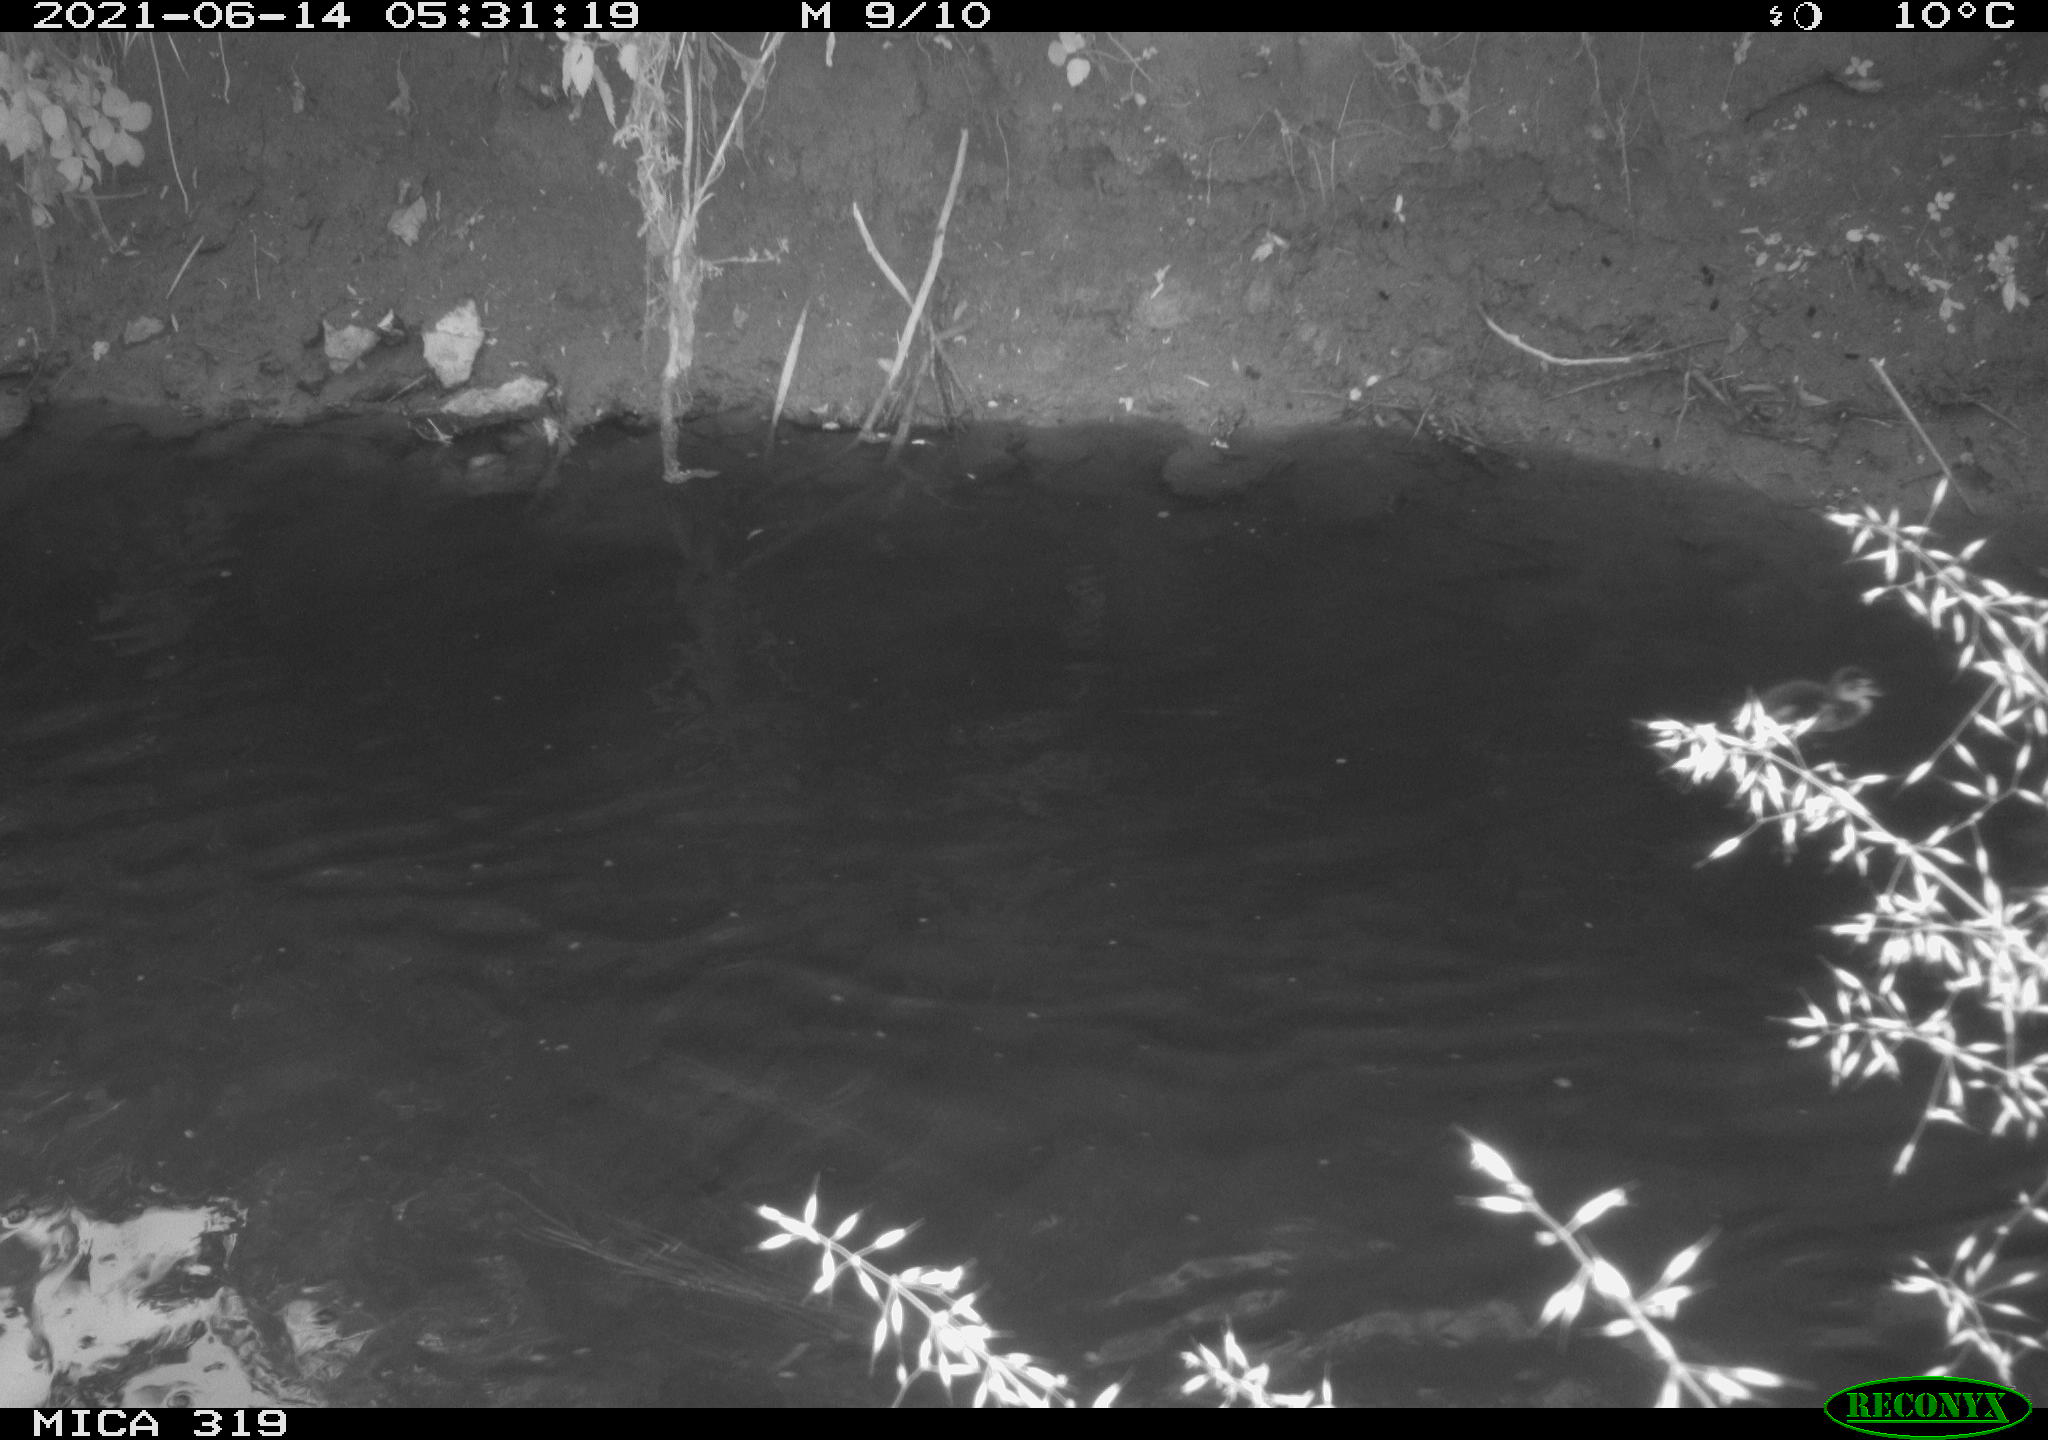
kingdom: Animalia
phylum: Chordata
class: Aves
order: Anseriformes
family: Anatidae
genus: Anas
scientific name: Anas platyrhynchos
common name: Mallard
